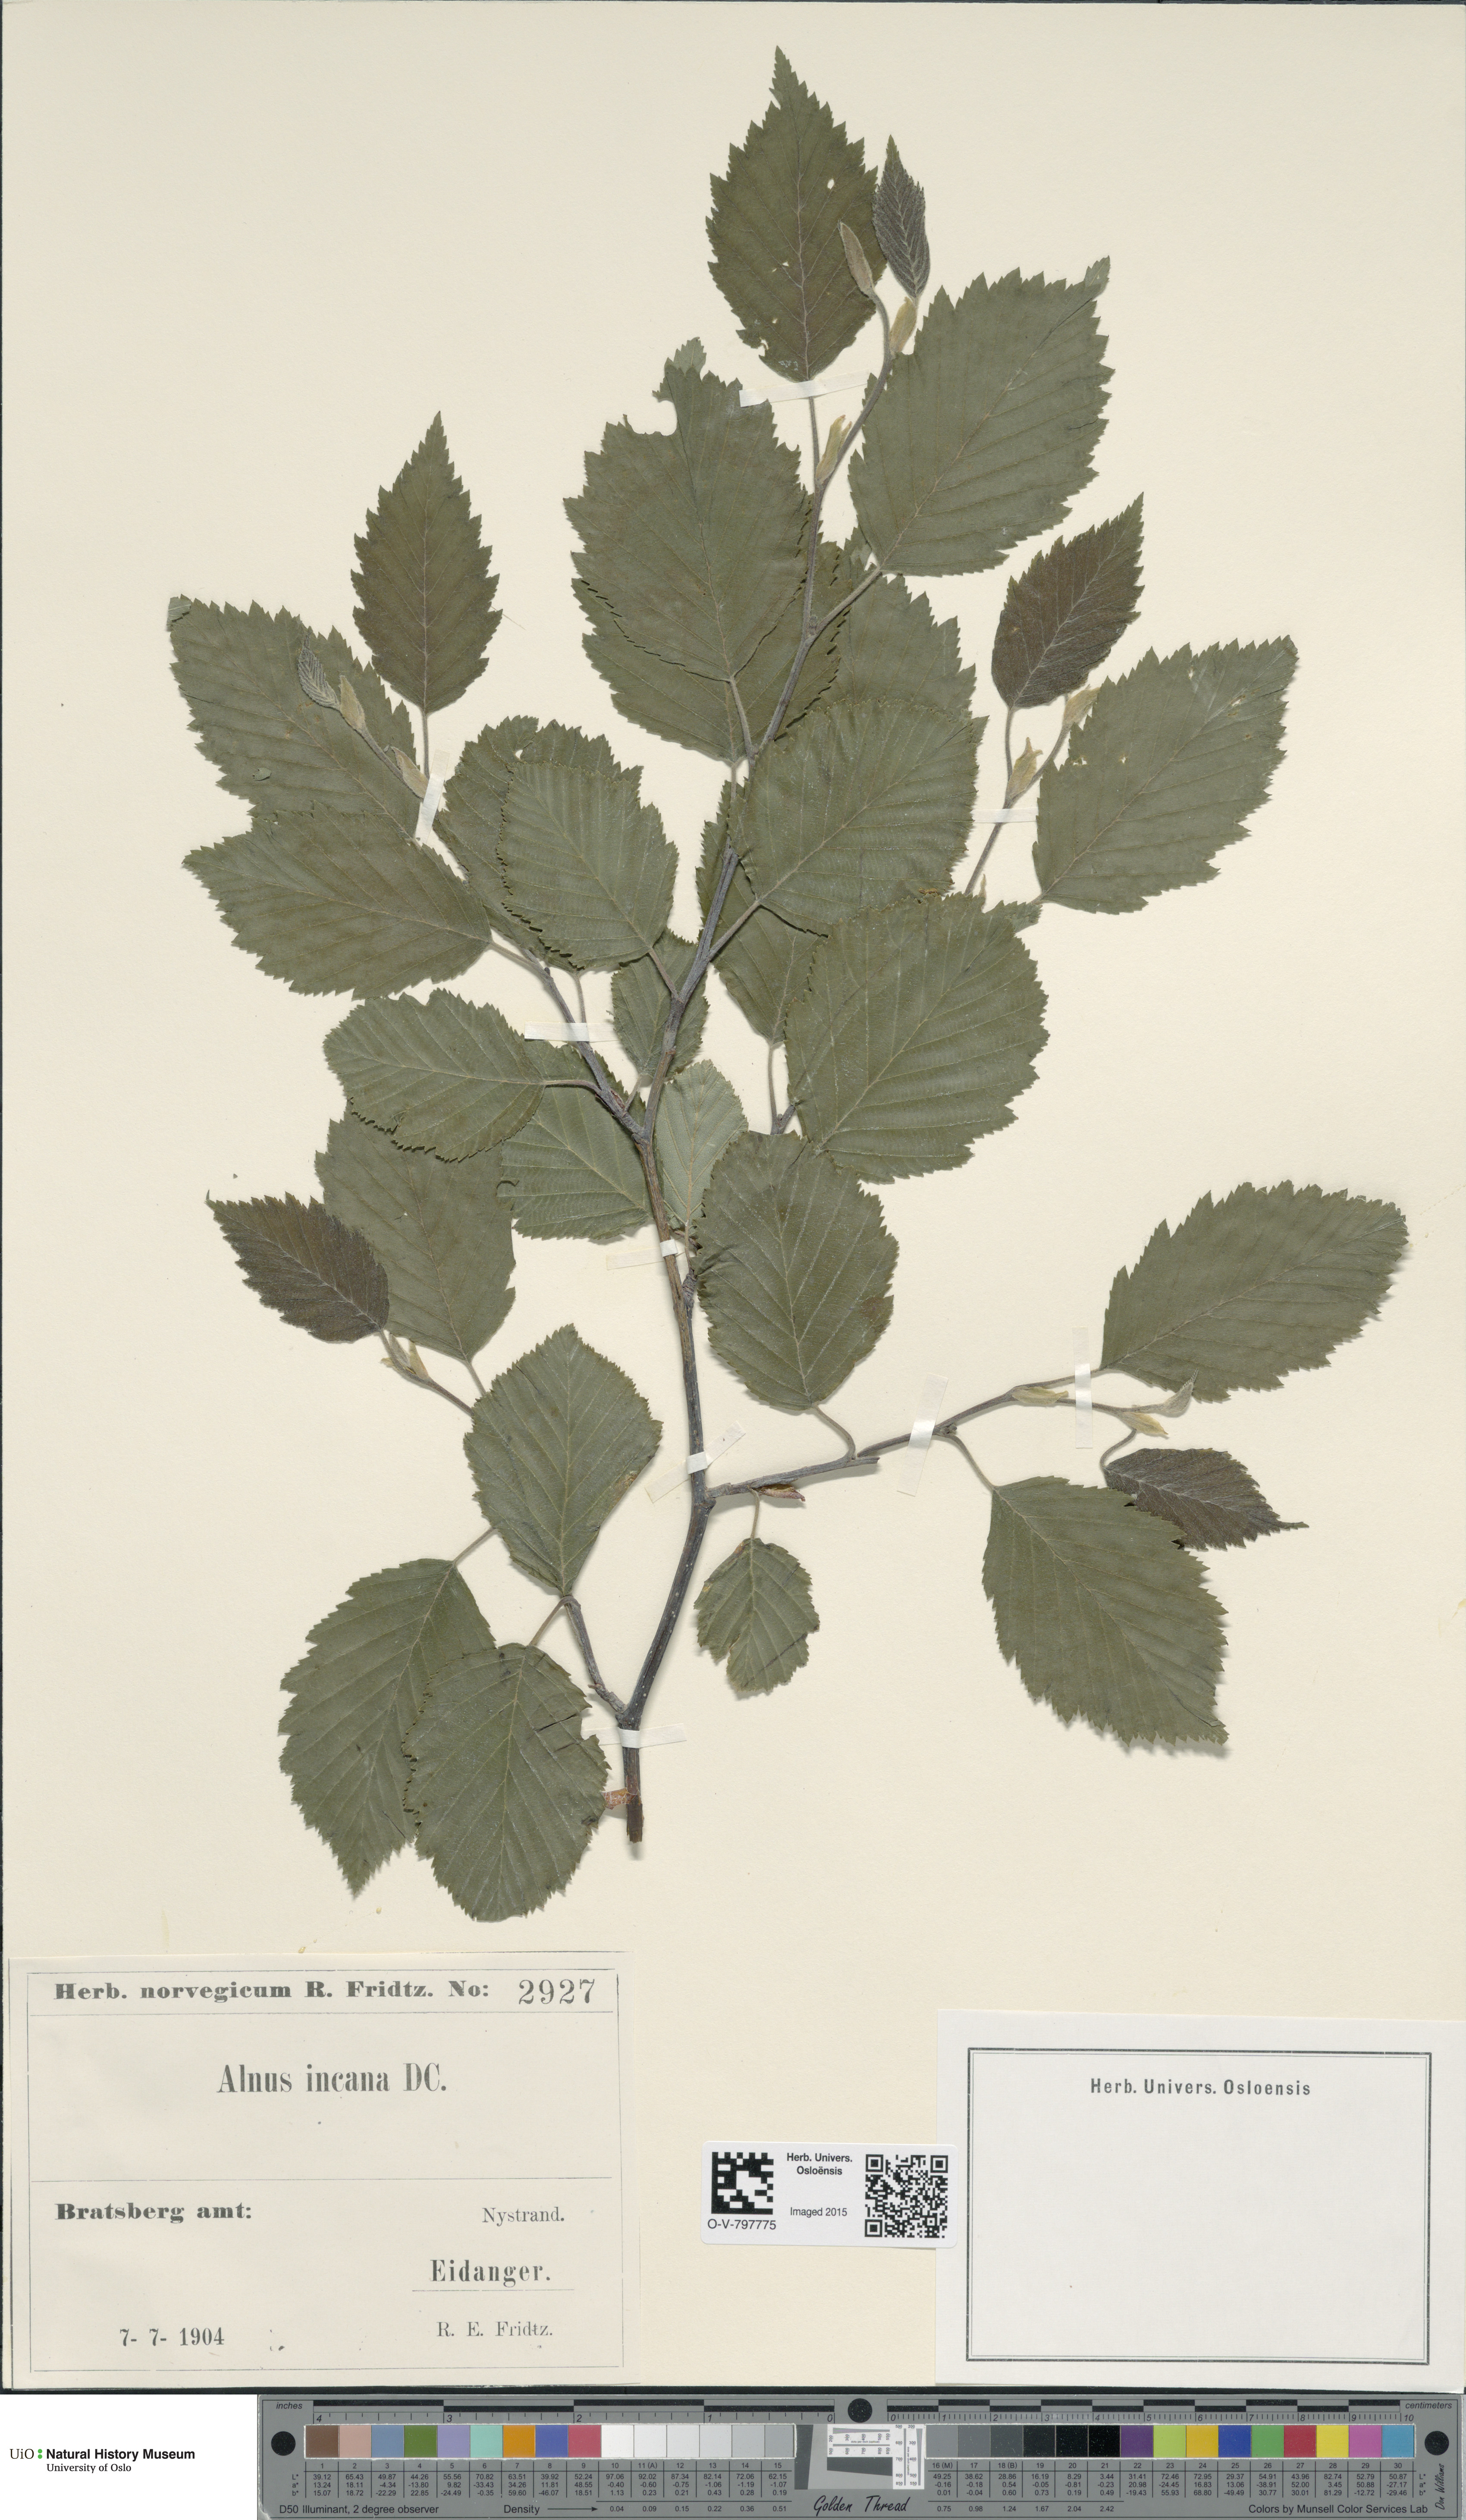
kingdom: Plantae
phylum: Tracheophyta
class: Magnoliopsida
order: Fagales
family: Betulaceae
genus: Alnus
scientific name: Alnus incana
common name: Grey alder
